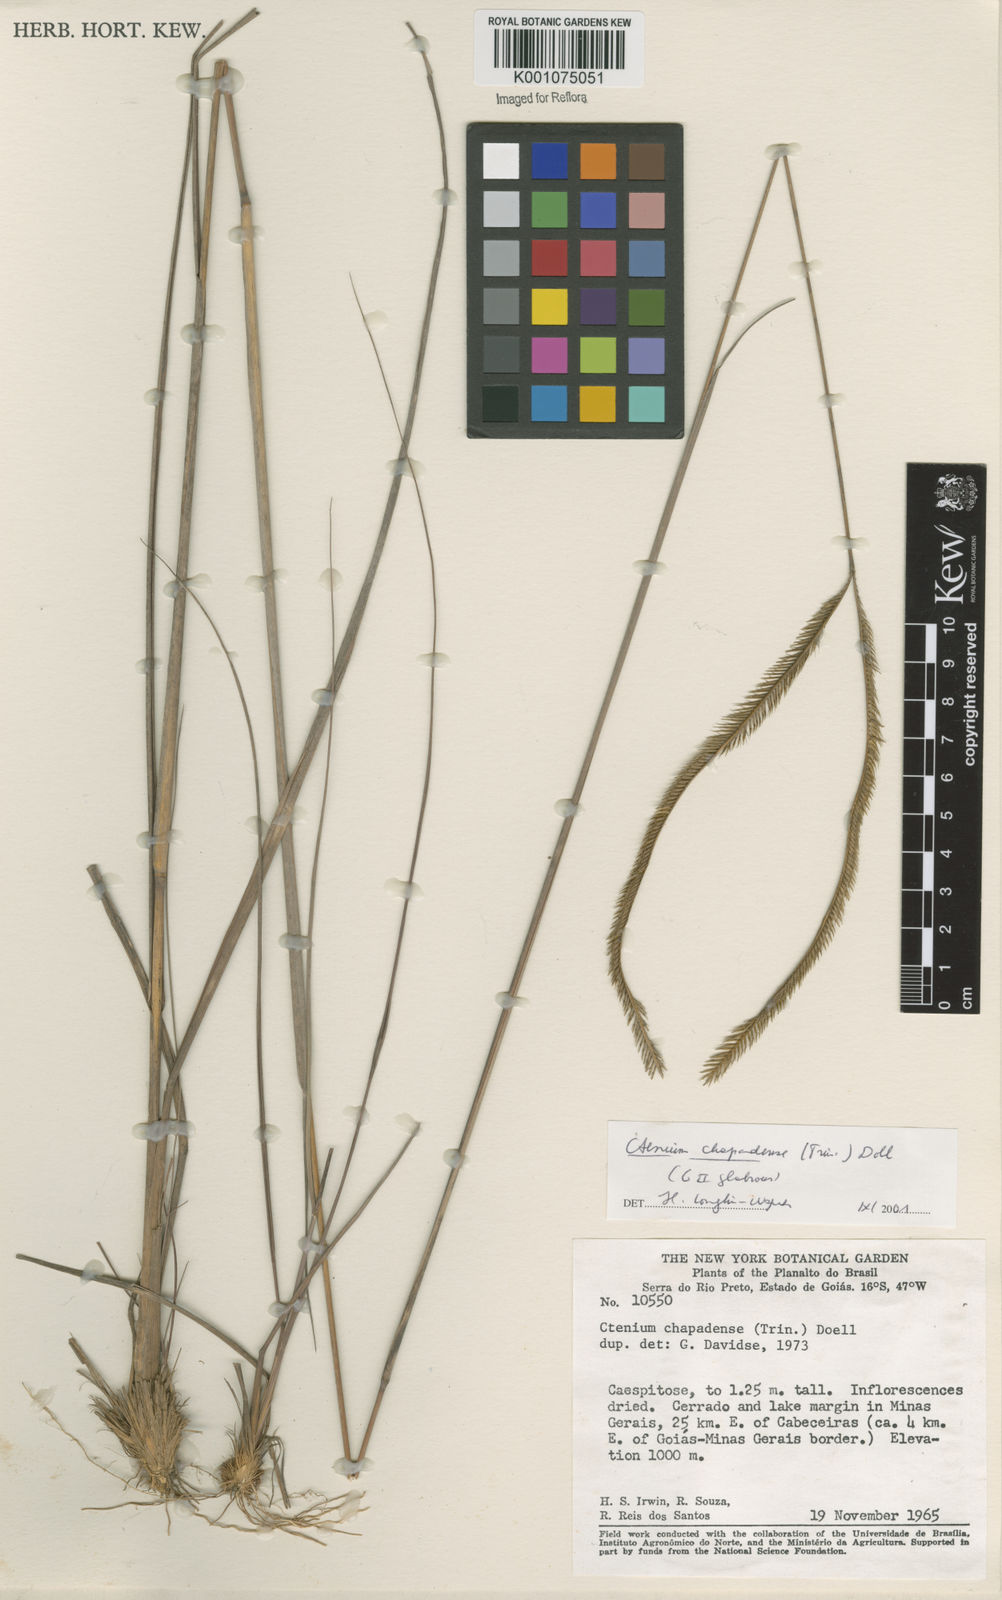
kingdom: Plantae
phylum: Tracheophyta
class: Liliopsida
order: Poales
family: Poaceae
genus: Ctenium
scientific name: Ctenium
